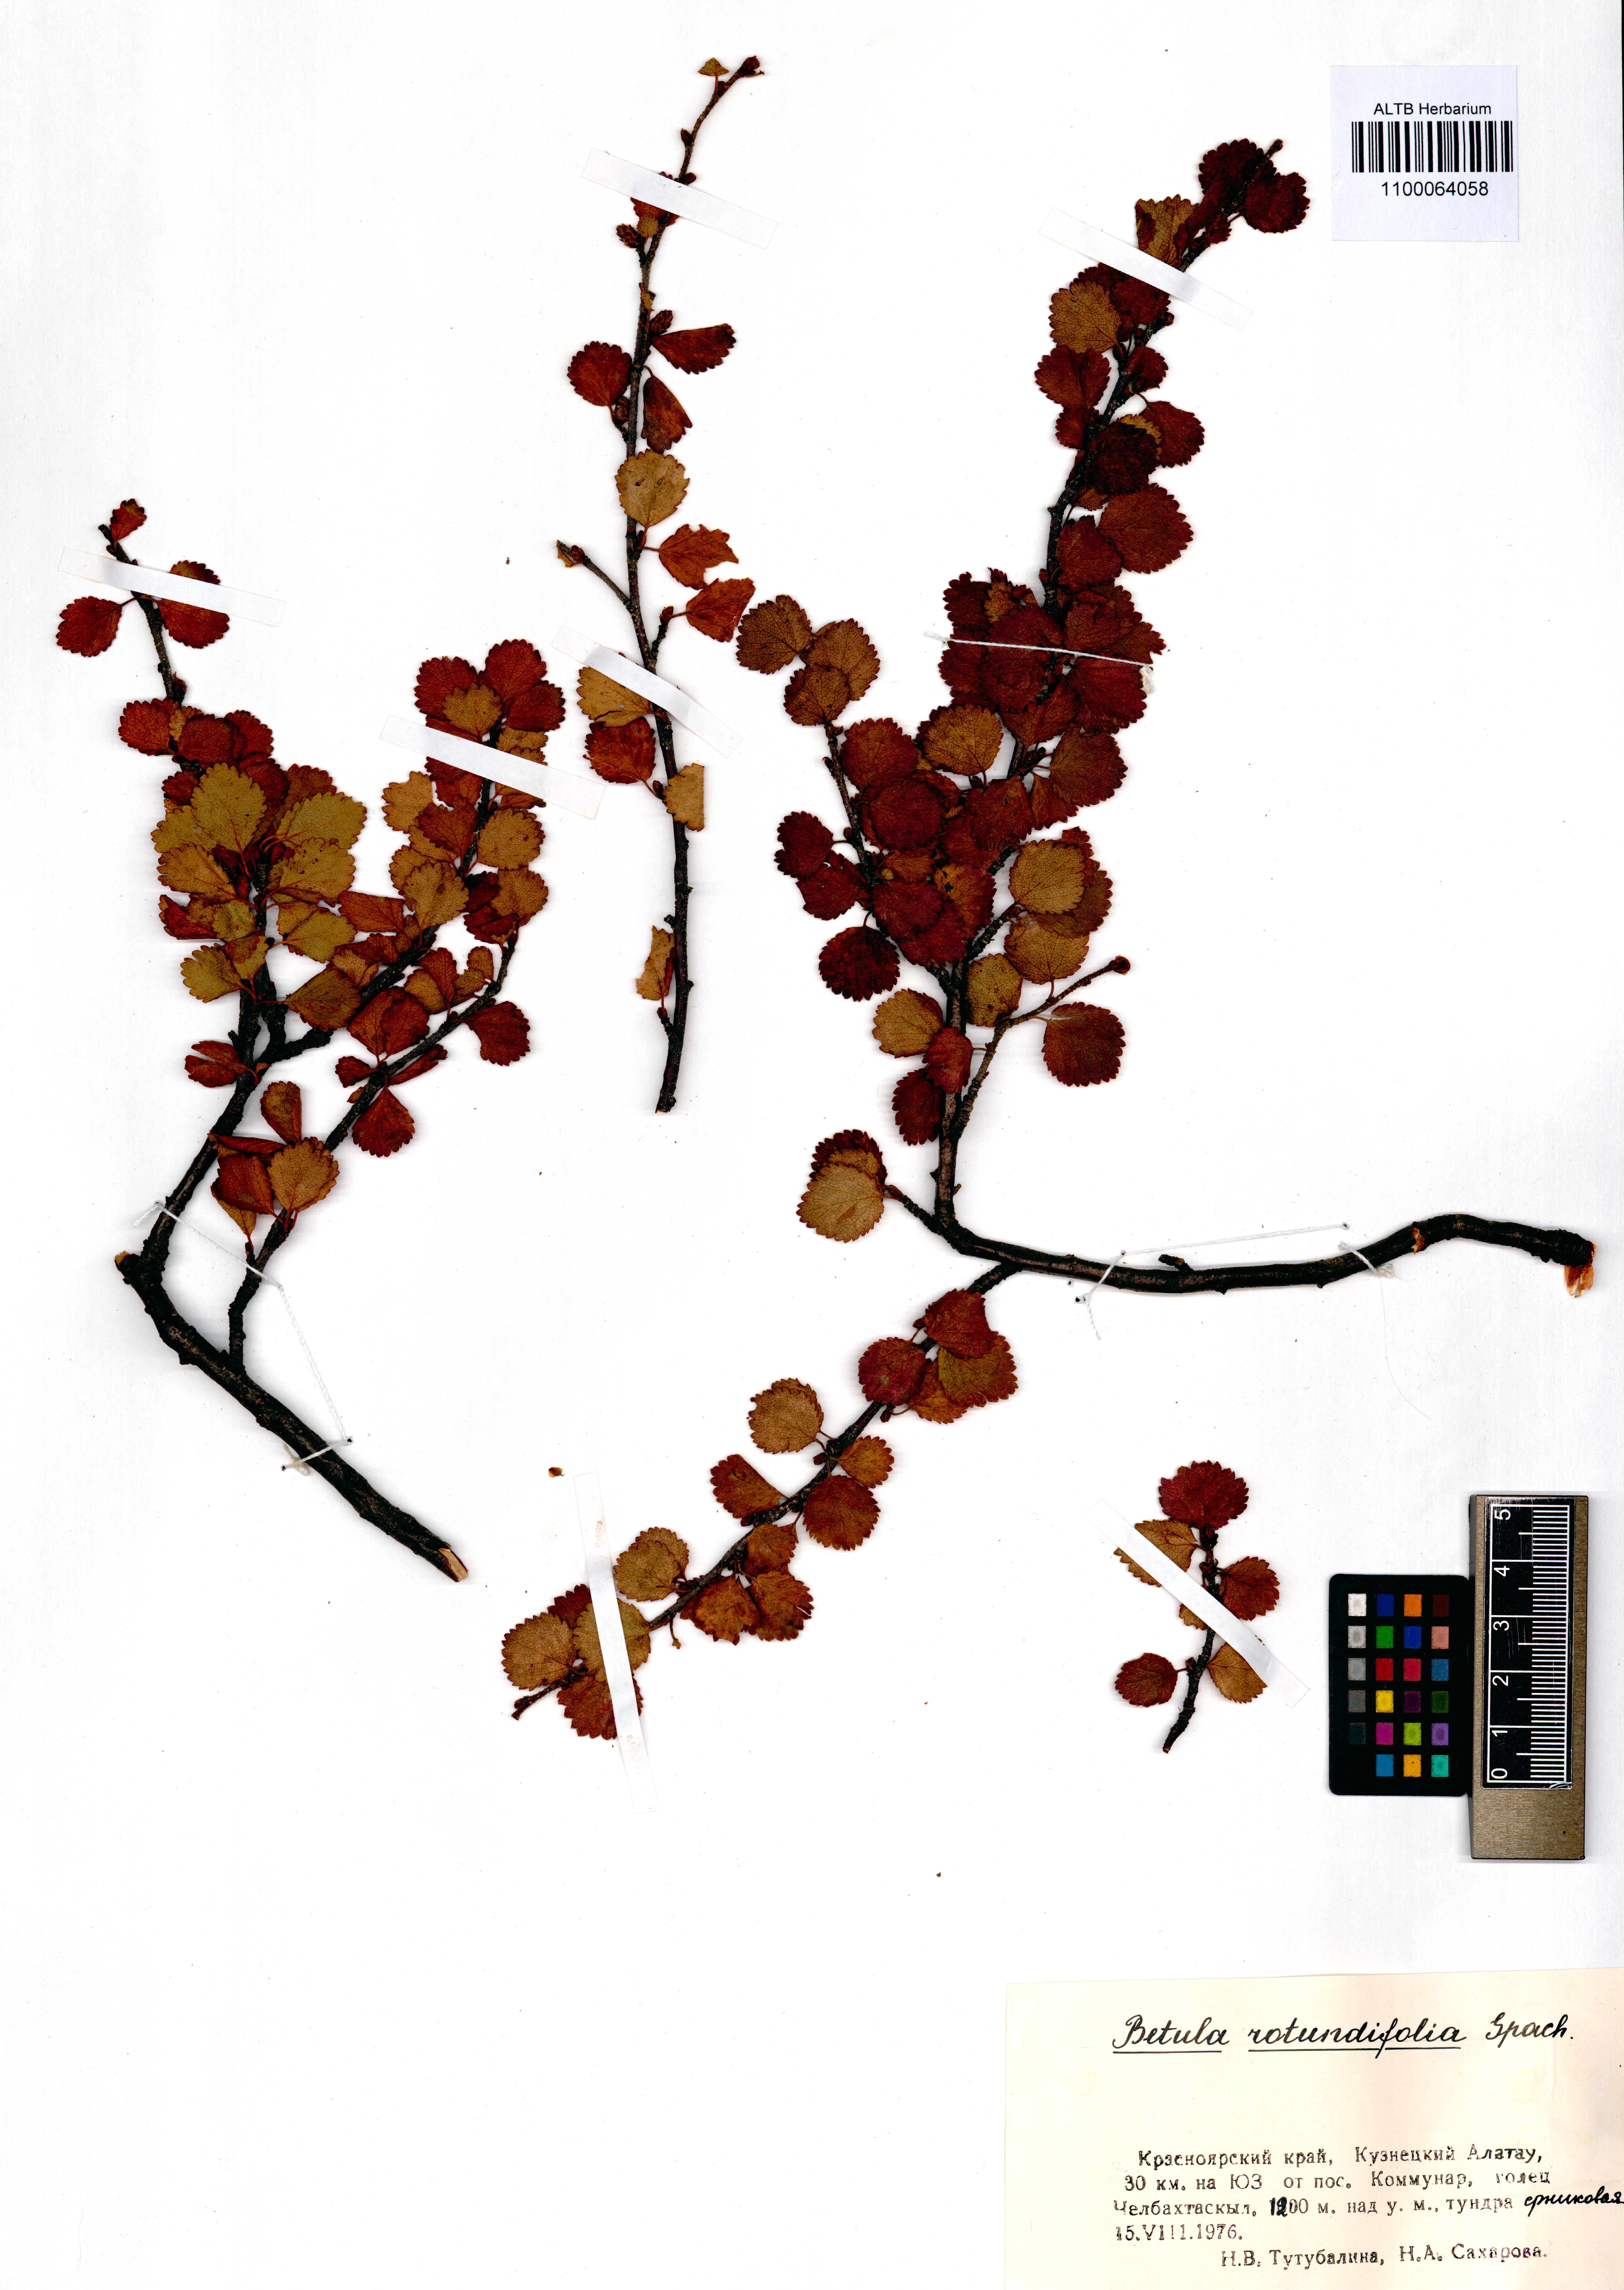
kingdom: Plantae
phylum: Tracheophyta
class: Magnoliopsida
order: Fagales
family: Betulaceae
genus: Betula
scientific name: Betula glandulosa
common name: Dwarf birch
